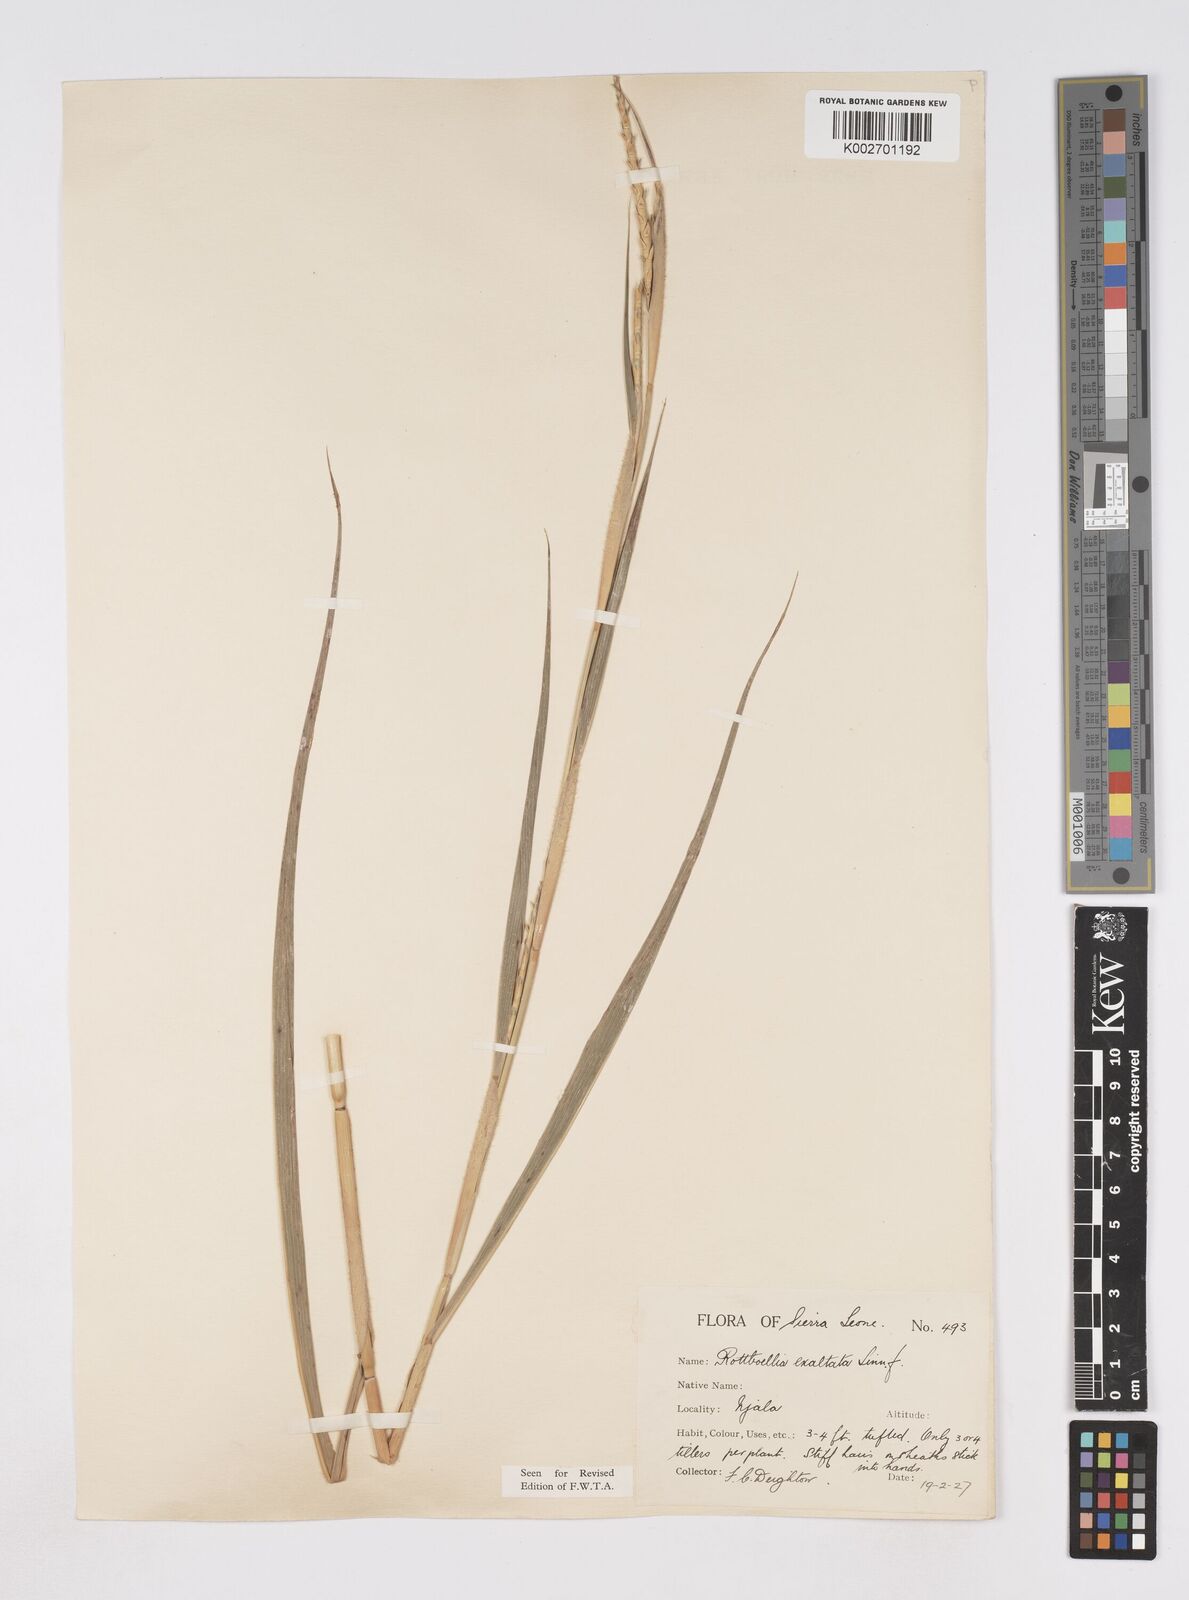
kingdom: Plantae
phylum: Tracheophyta
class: Liliopsida
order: Poales
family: Poaceae
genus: Ophiuros
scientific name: Ophiuros exaltatus
